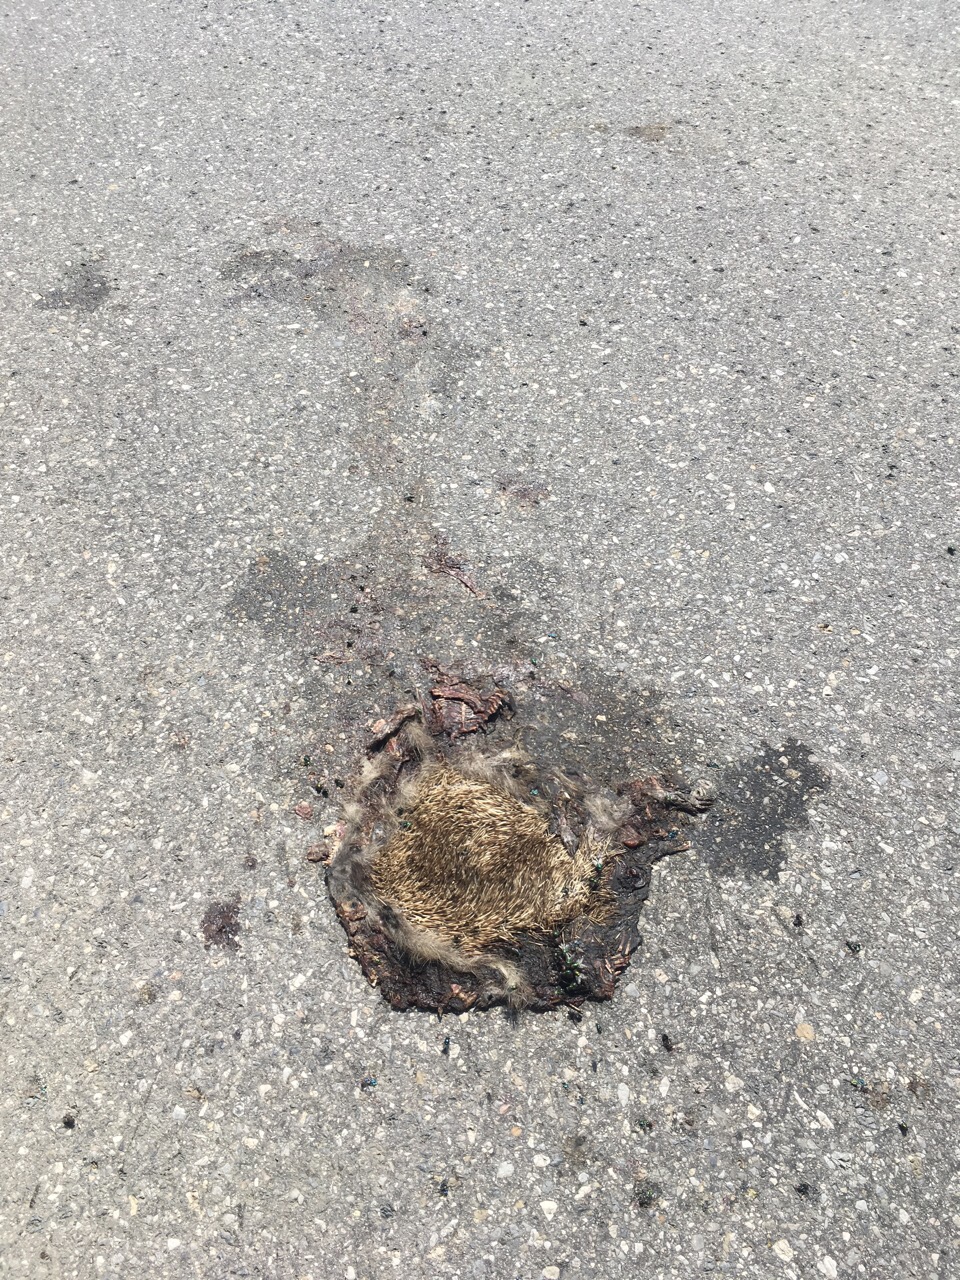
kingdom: Animalia
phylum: Chordata
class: Mammalia
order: Erinaceomorpha
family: Erinaceidae
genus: Erinaceus
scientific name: Erinaceus
